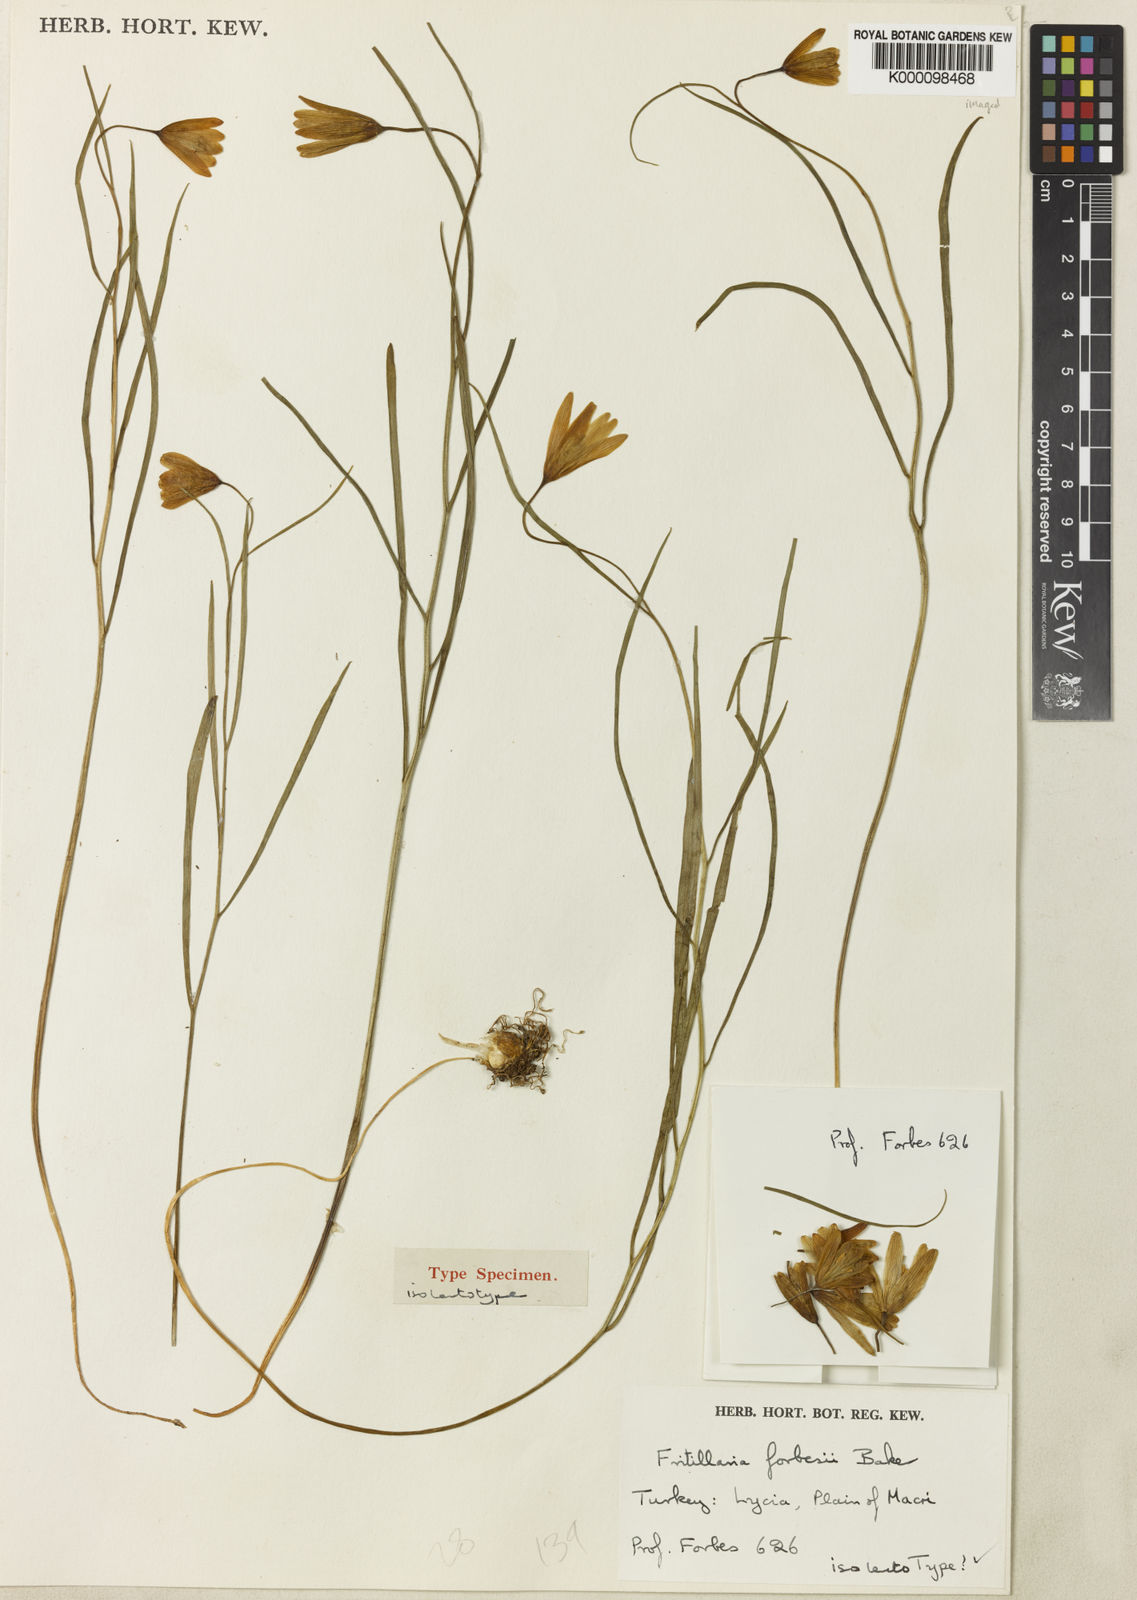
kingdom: Plantae
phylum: Tracheophyta
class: Liliopsida
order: Liliales
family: Liliaceae
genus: Fritillaria
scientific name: Fritillaria forbesii
